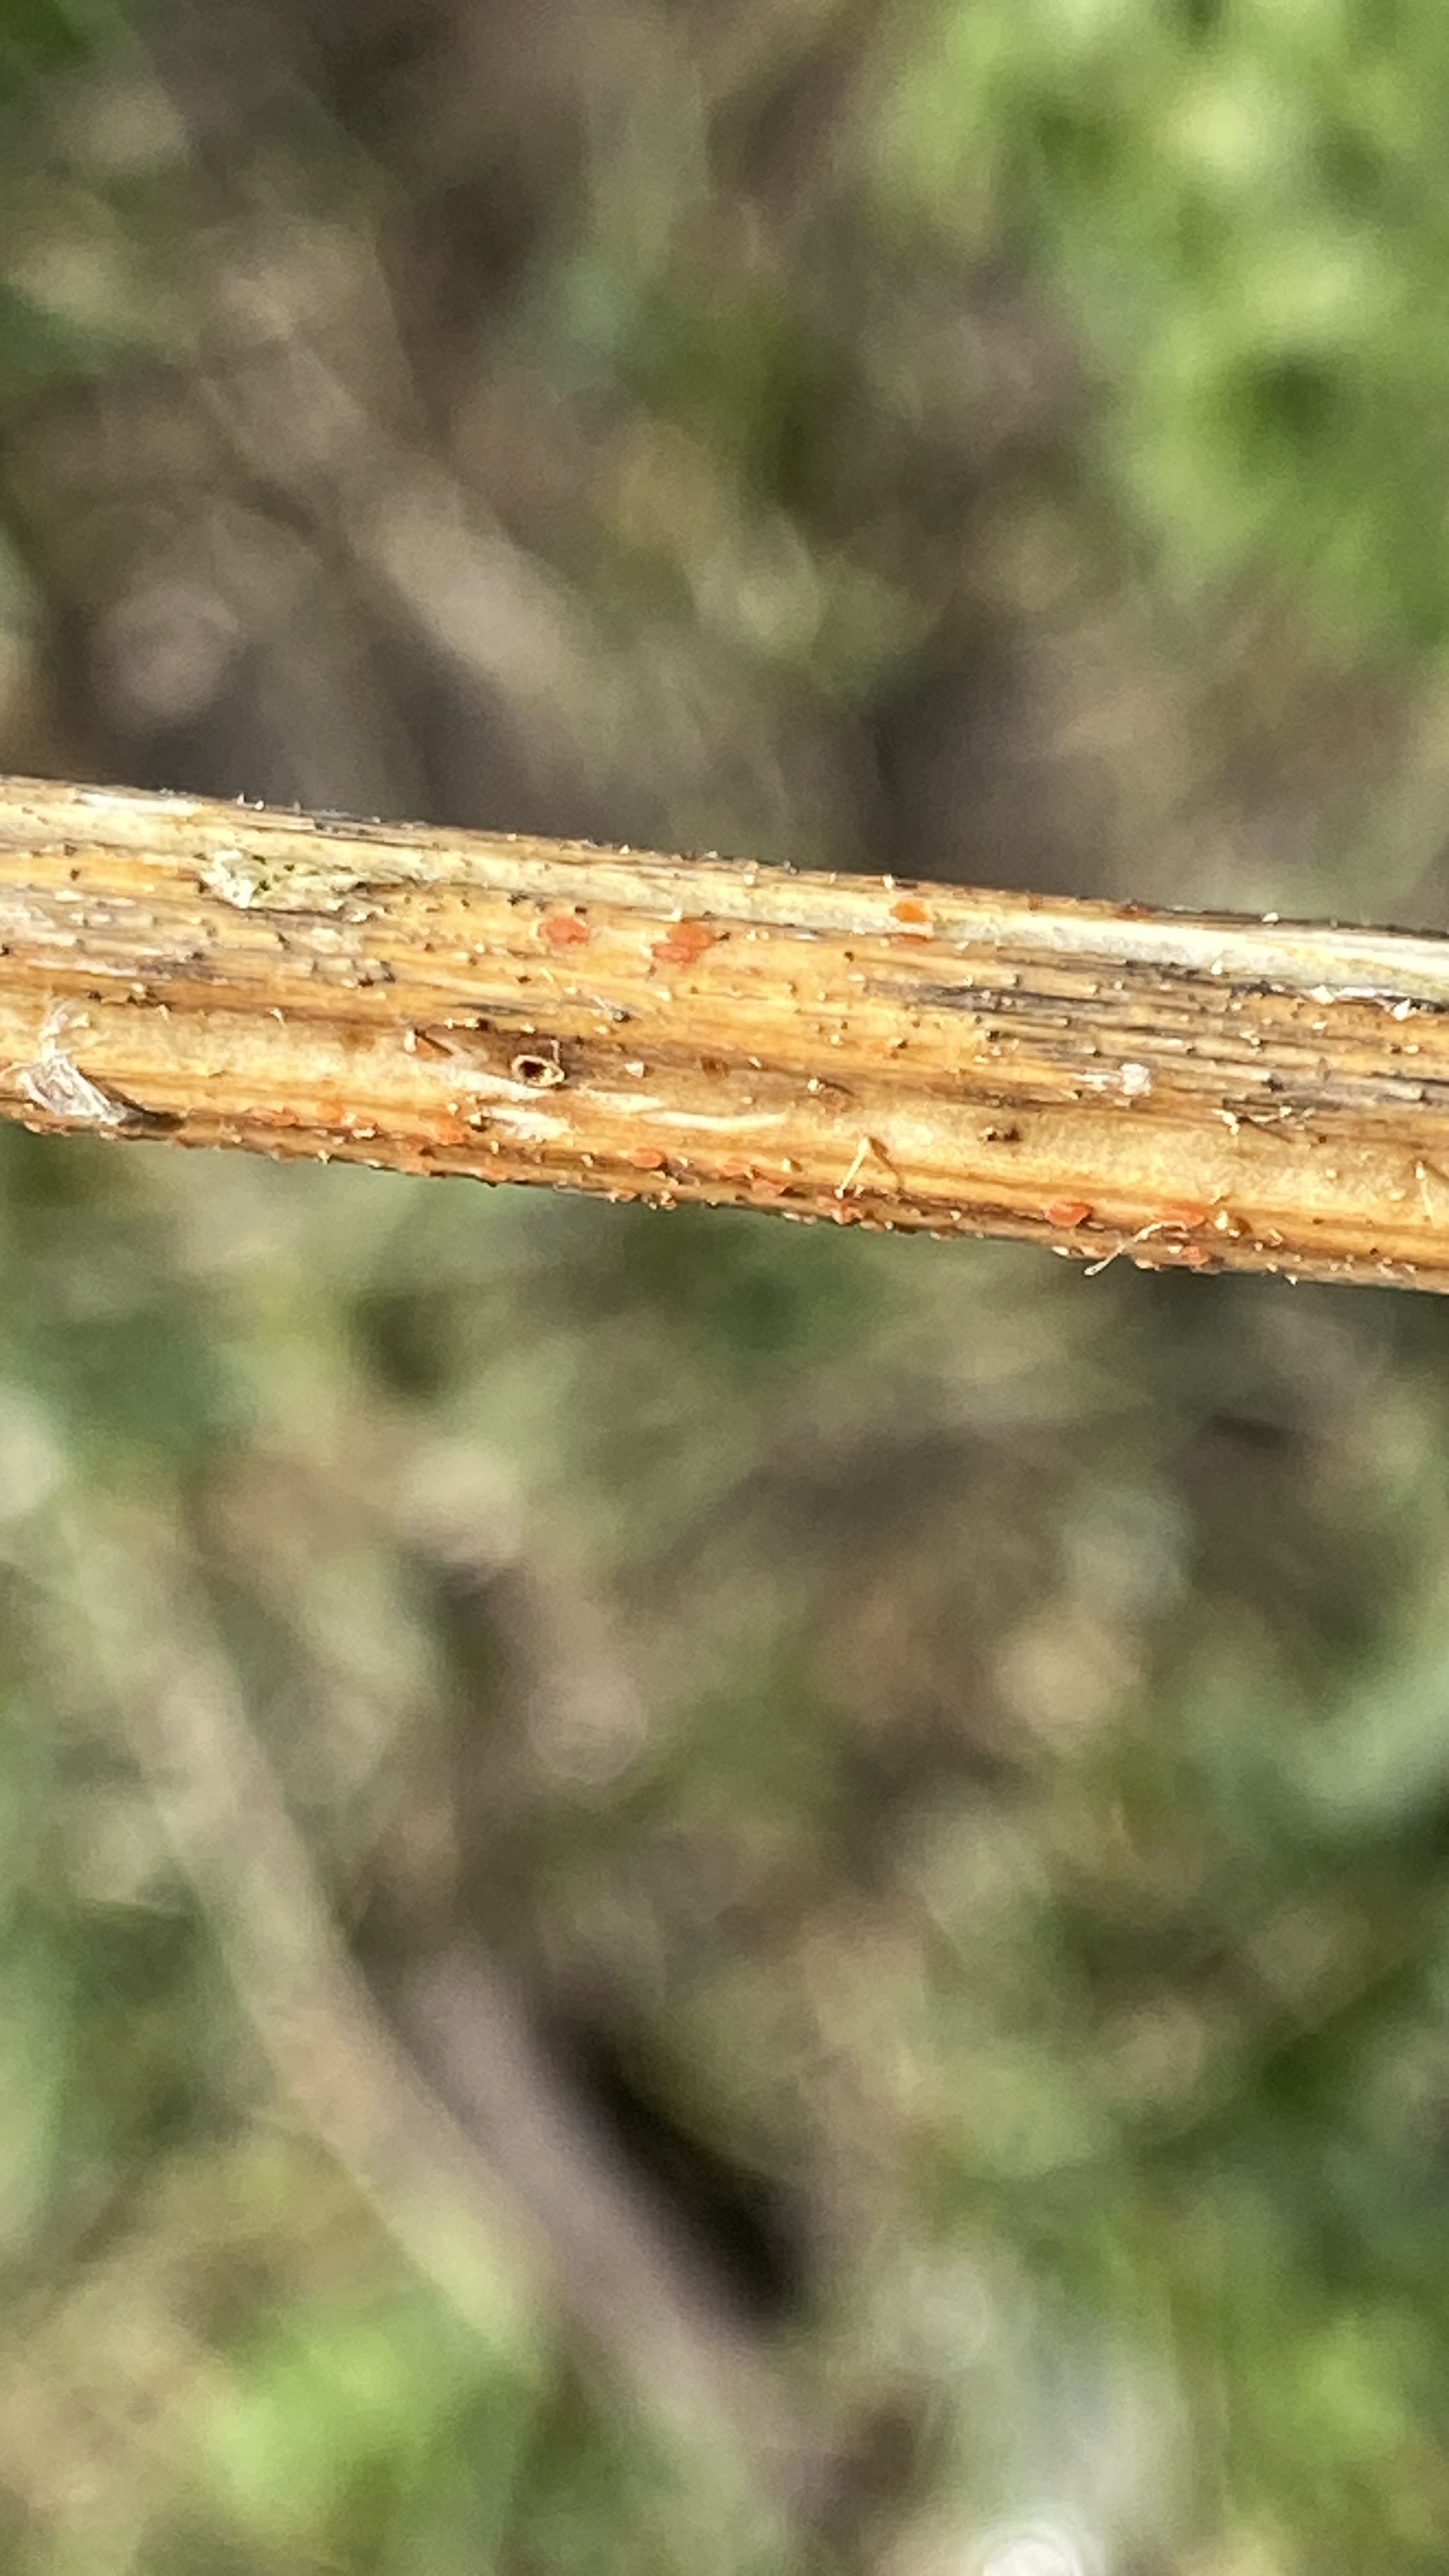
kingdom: Fungi
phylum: Ascomycota
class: Leotiomycetes
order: Helotiales
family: Calloriaceae
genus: Calloria
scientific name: Calloria urticae
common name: nælde-orangeskive
